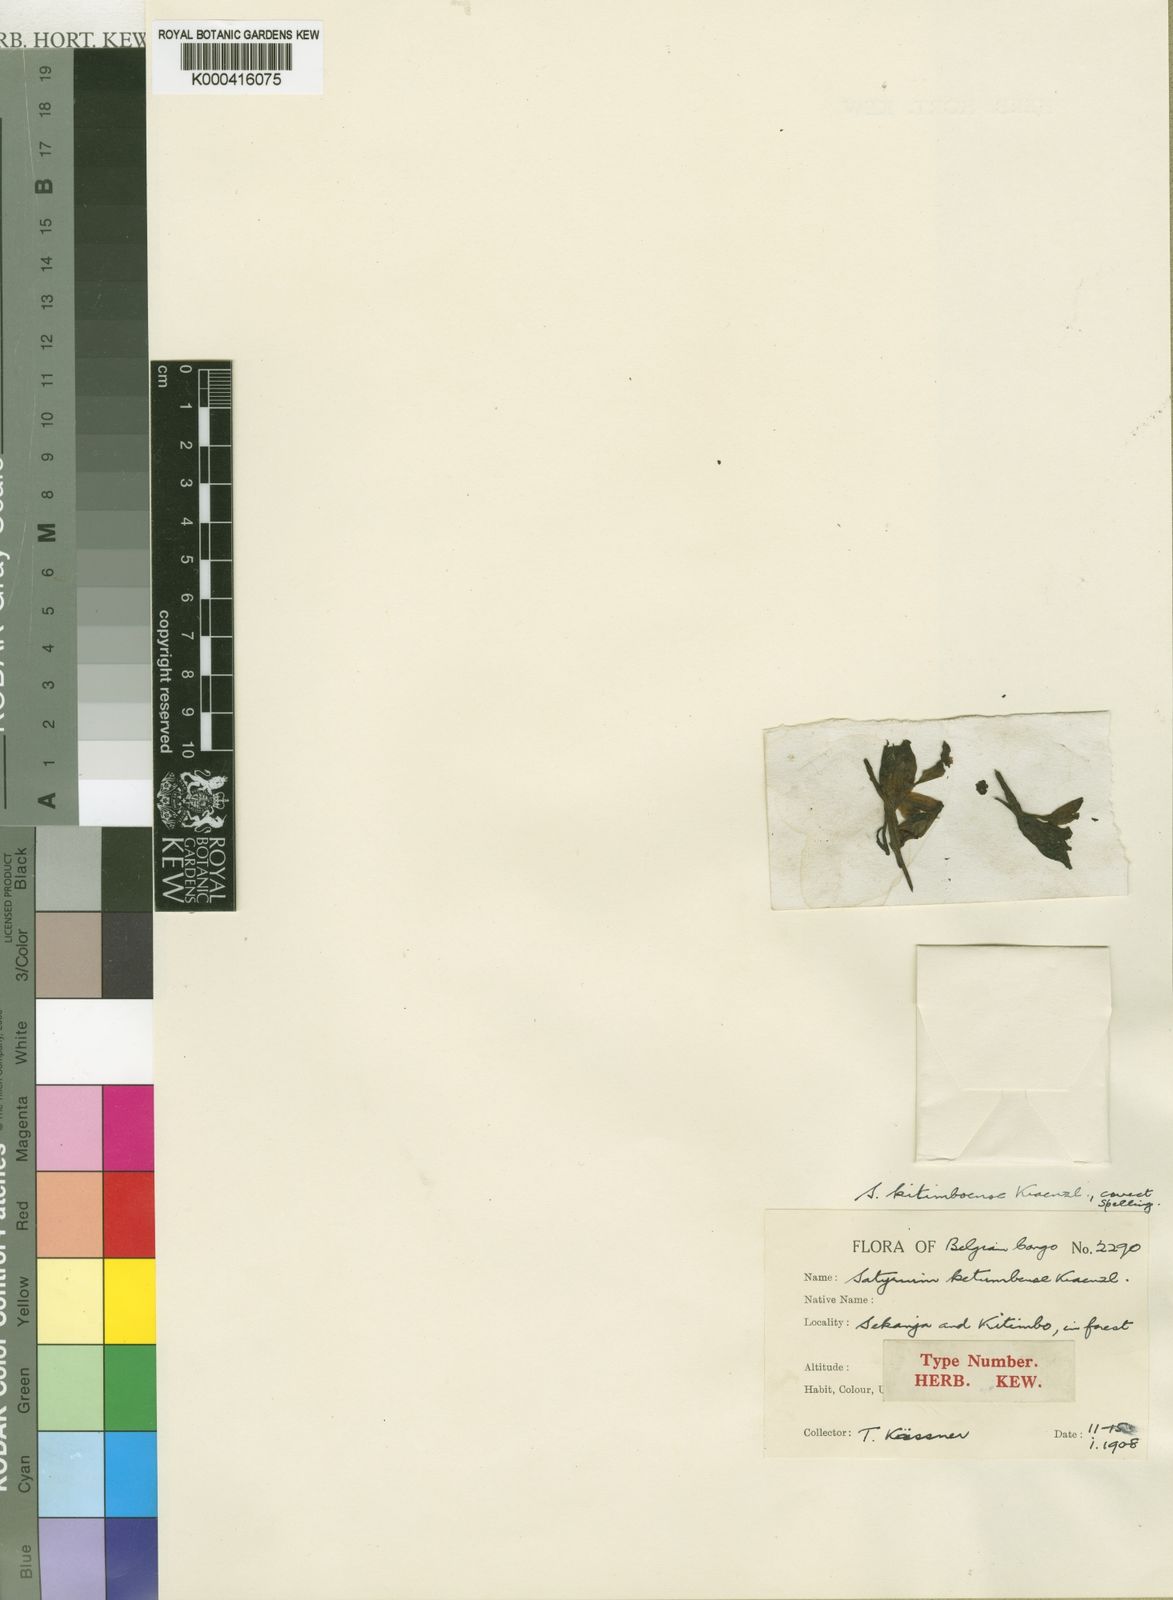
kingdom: Plantae
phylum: Tracheophyta
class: Liliopsida
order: Asparagales
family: Orchidaceae
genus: Satyrium
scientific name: Satyrium ketumbense
